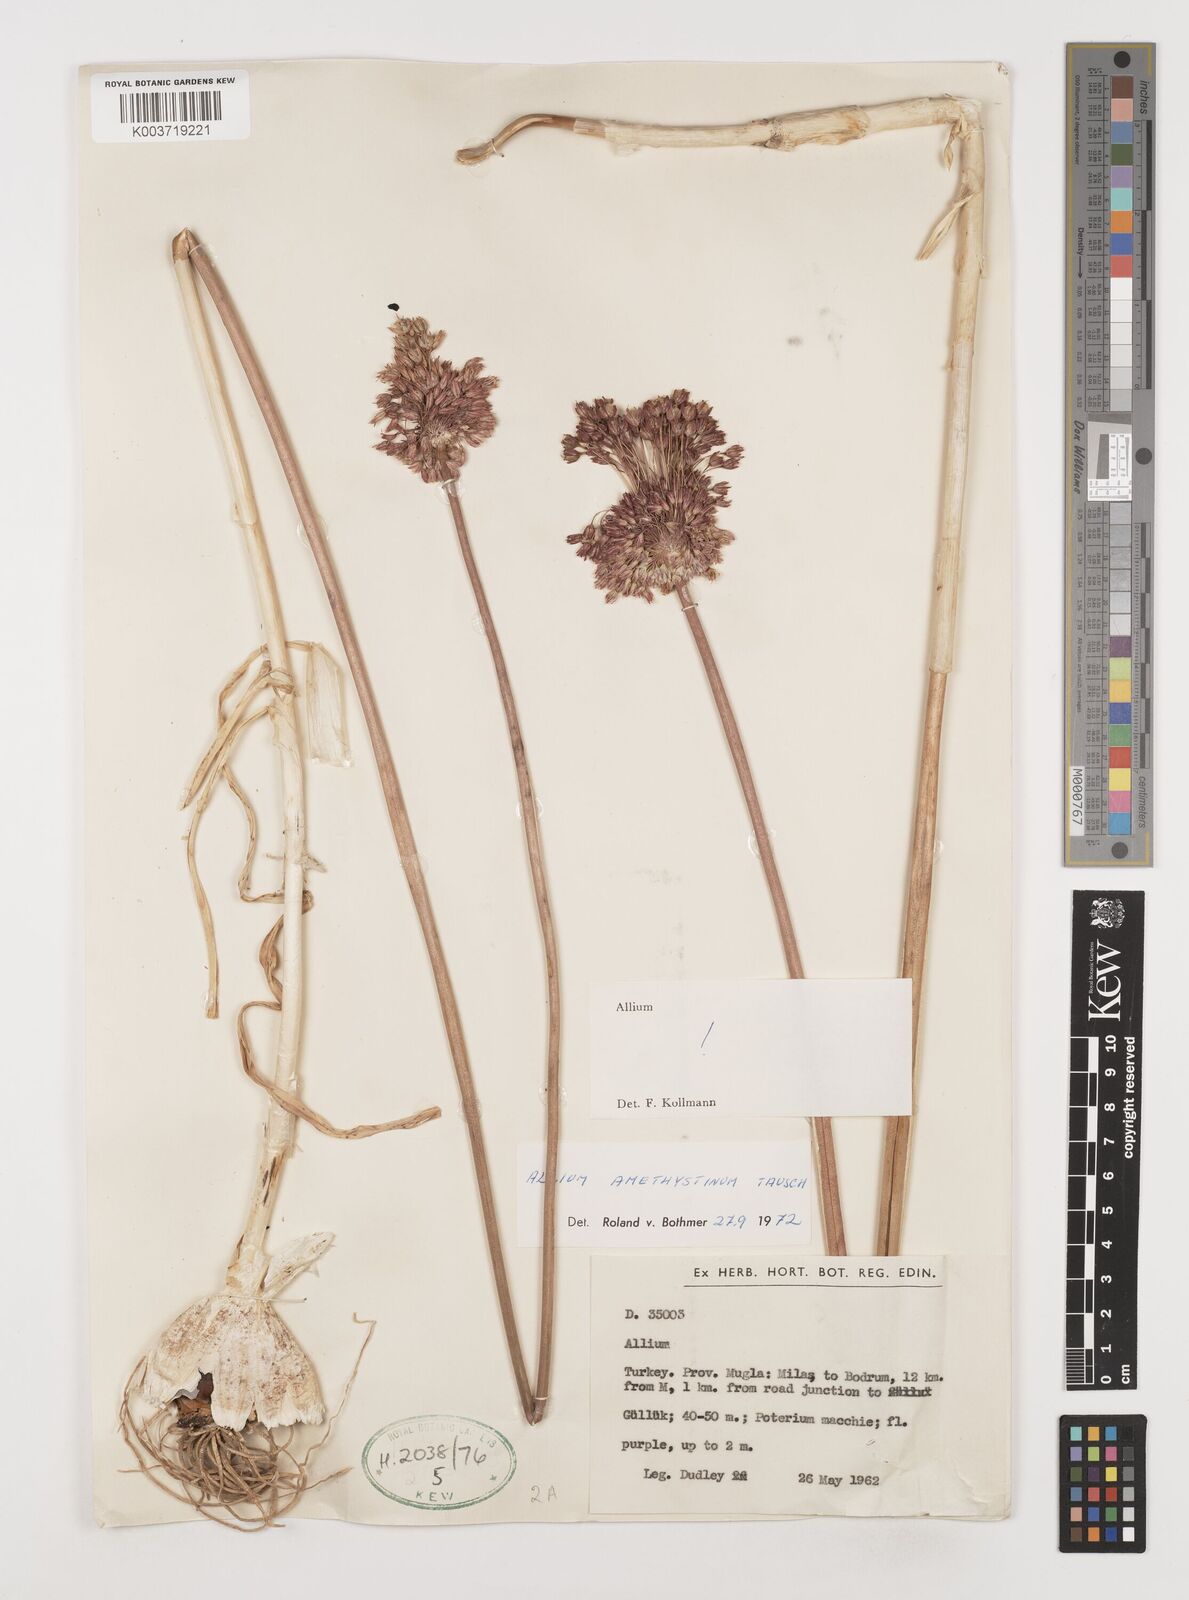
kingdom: Plantae
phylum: Tracheophyta
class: Liliopsida
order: Asparagales
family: Amaryllidaceae
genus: Allium
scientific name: Allium amethystinum
